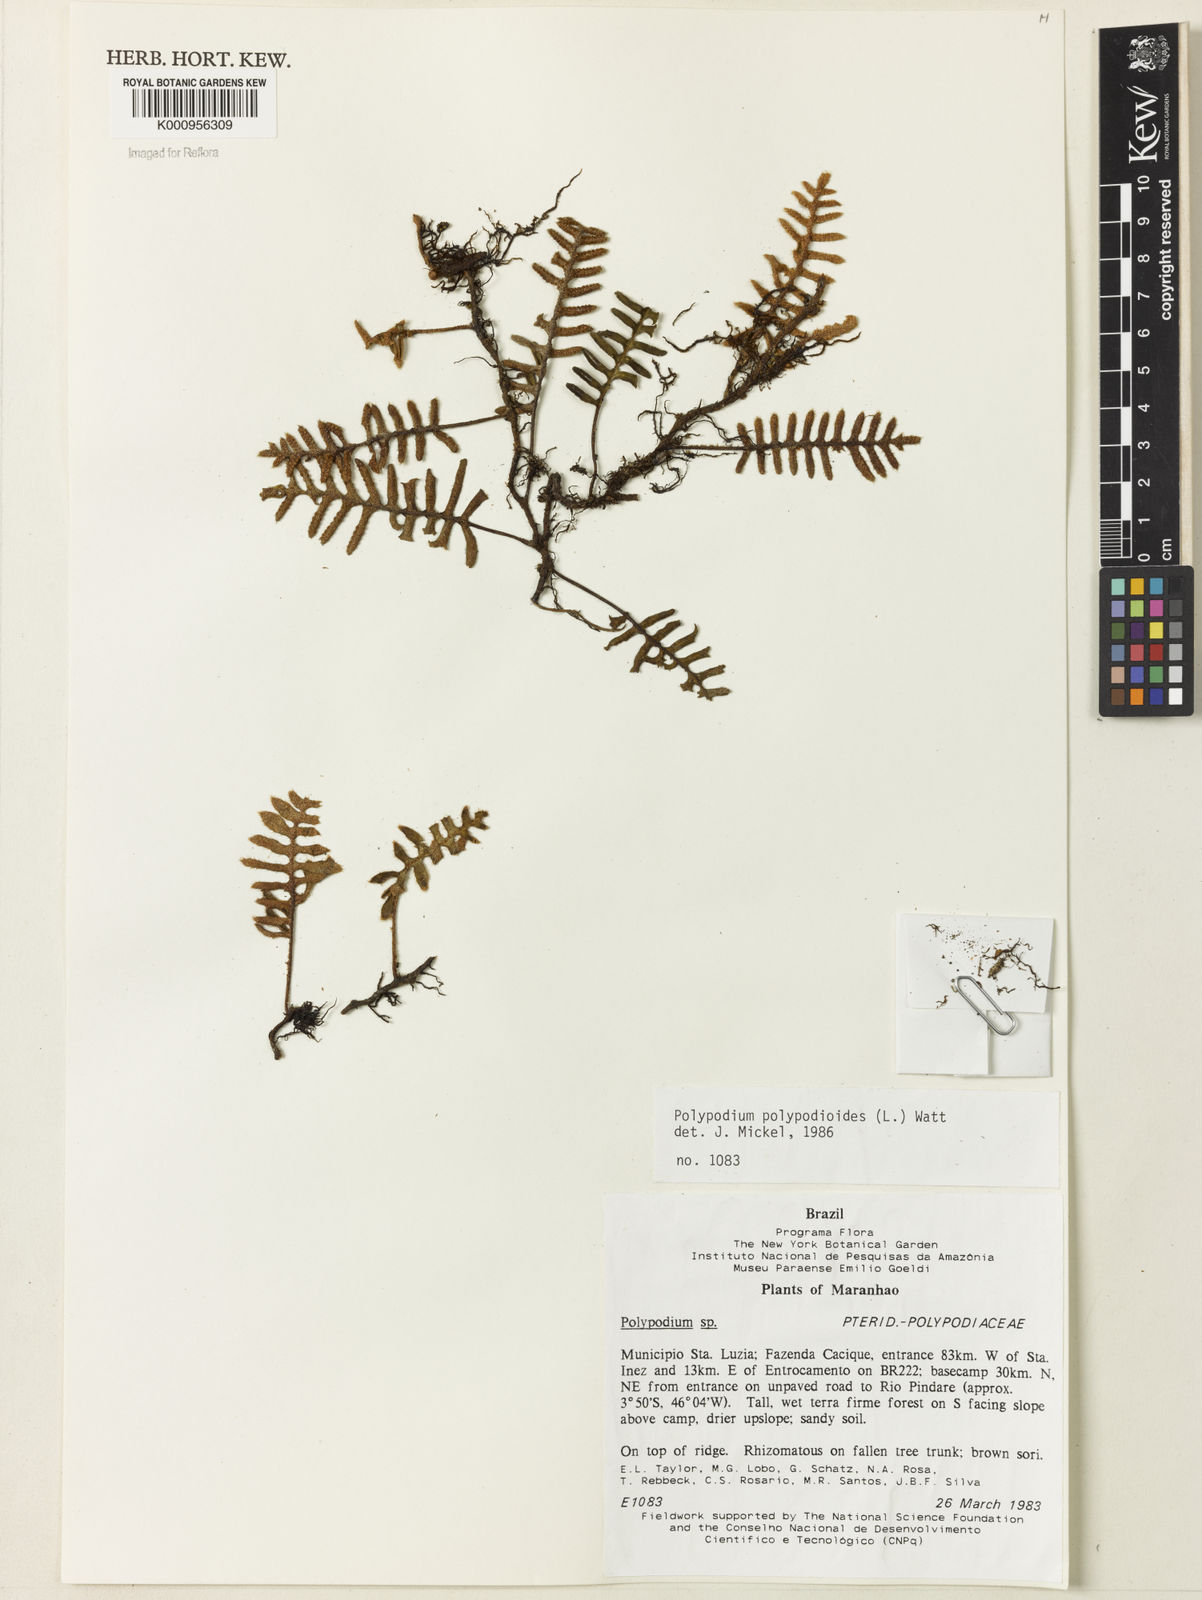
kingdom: Plantae
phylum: Tracheophyta
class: Polypodiopsida
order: Polypodiales
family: Polypodiaceae
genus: Pleopeltis
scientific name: Pleopeltis polypodioides
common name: Resurrection fern
